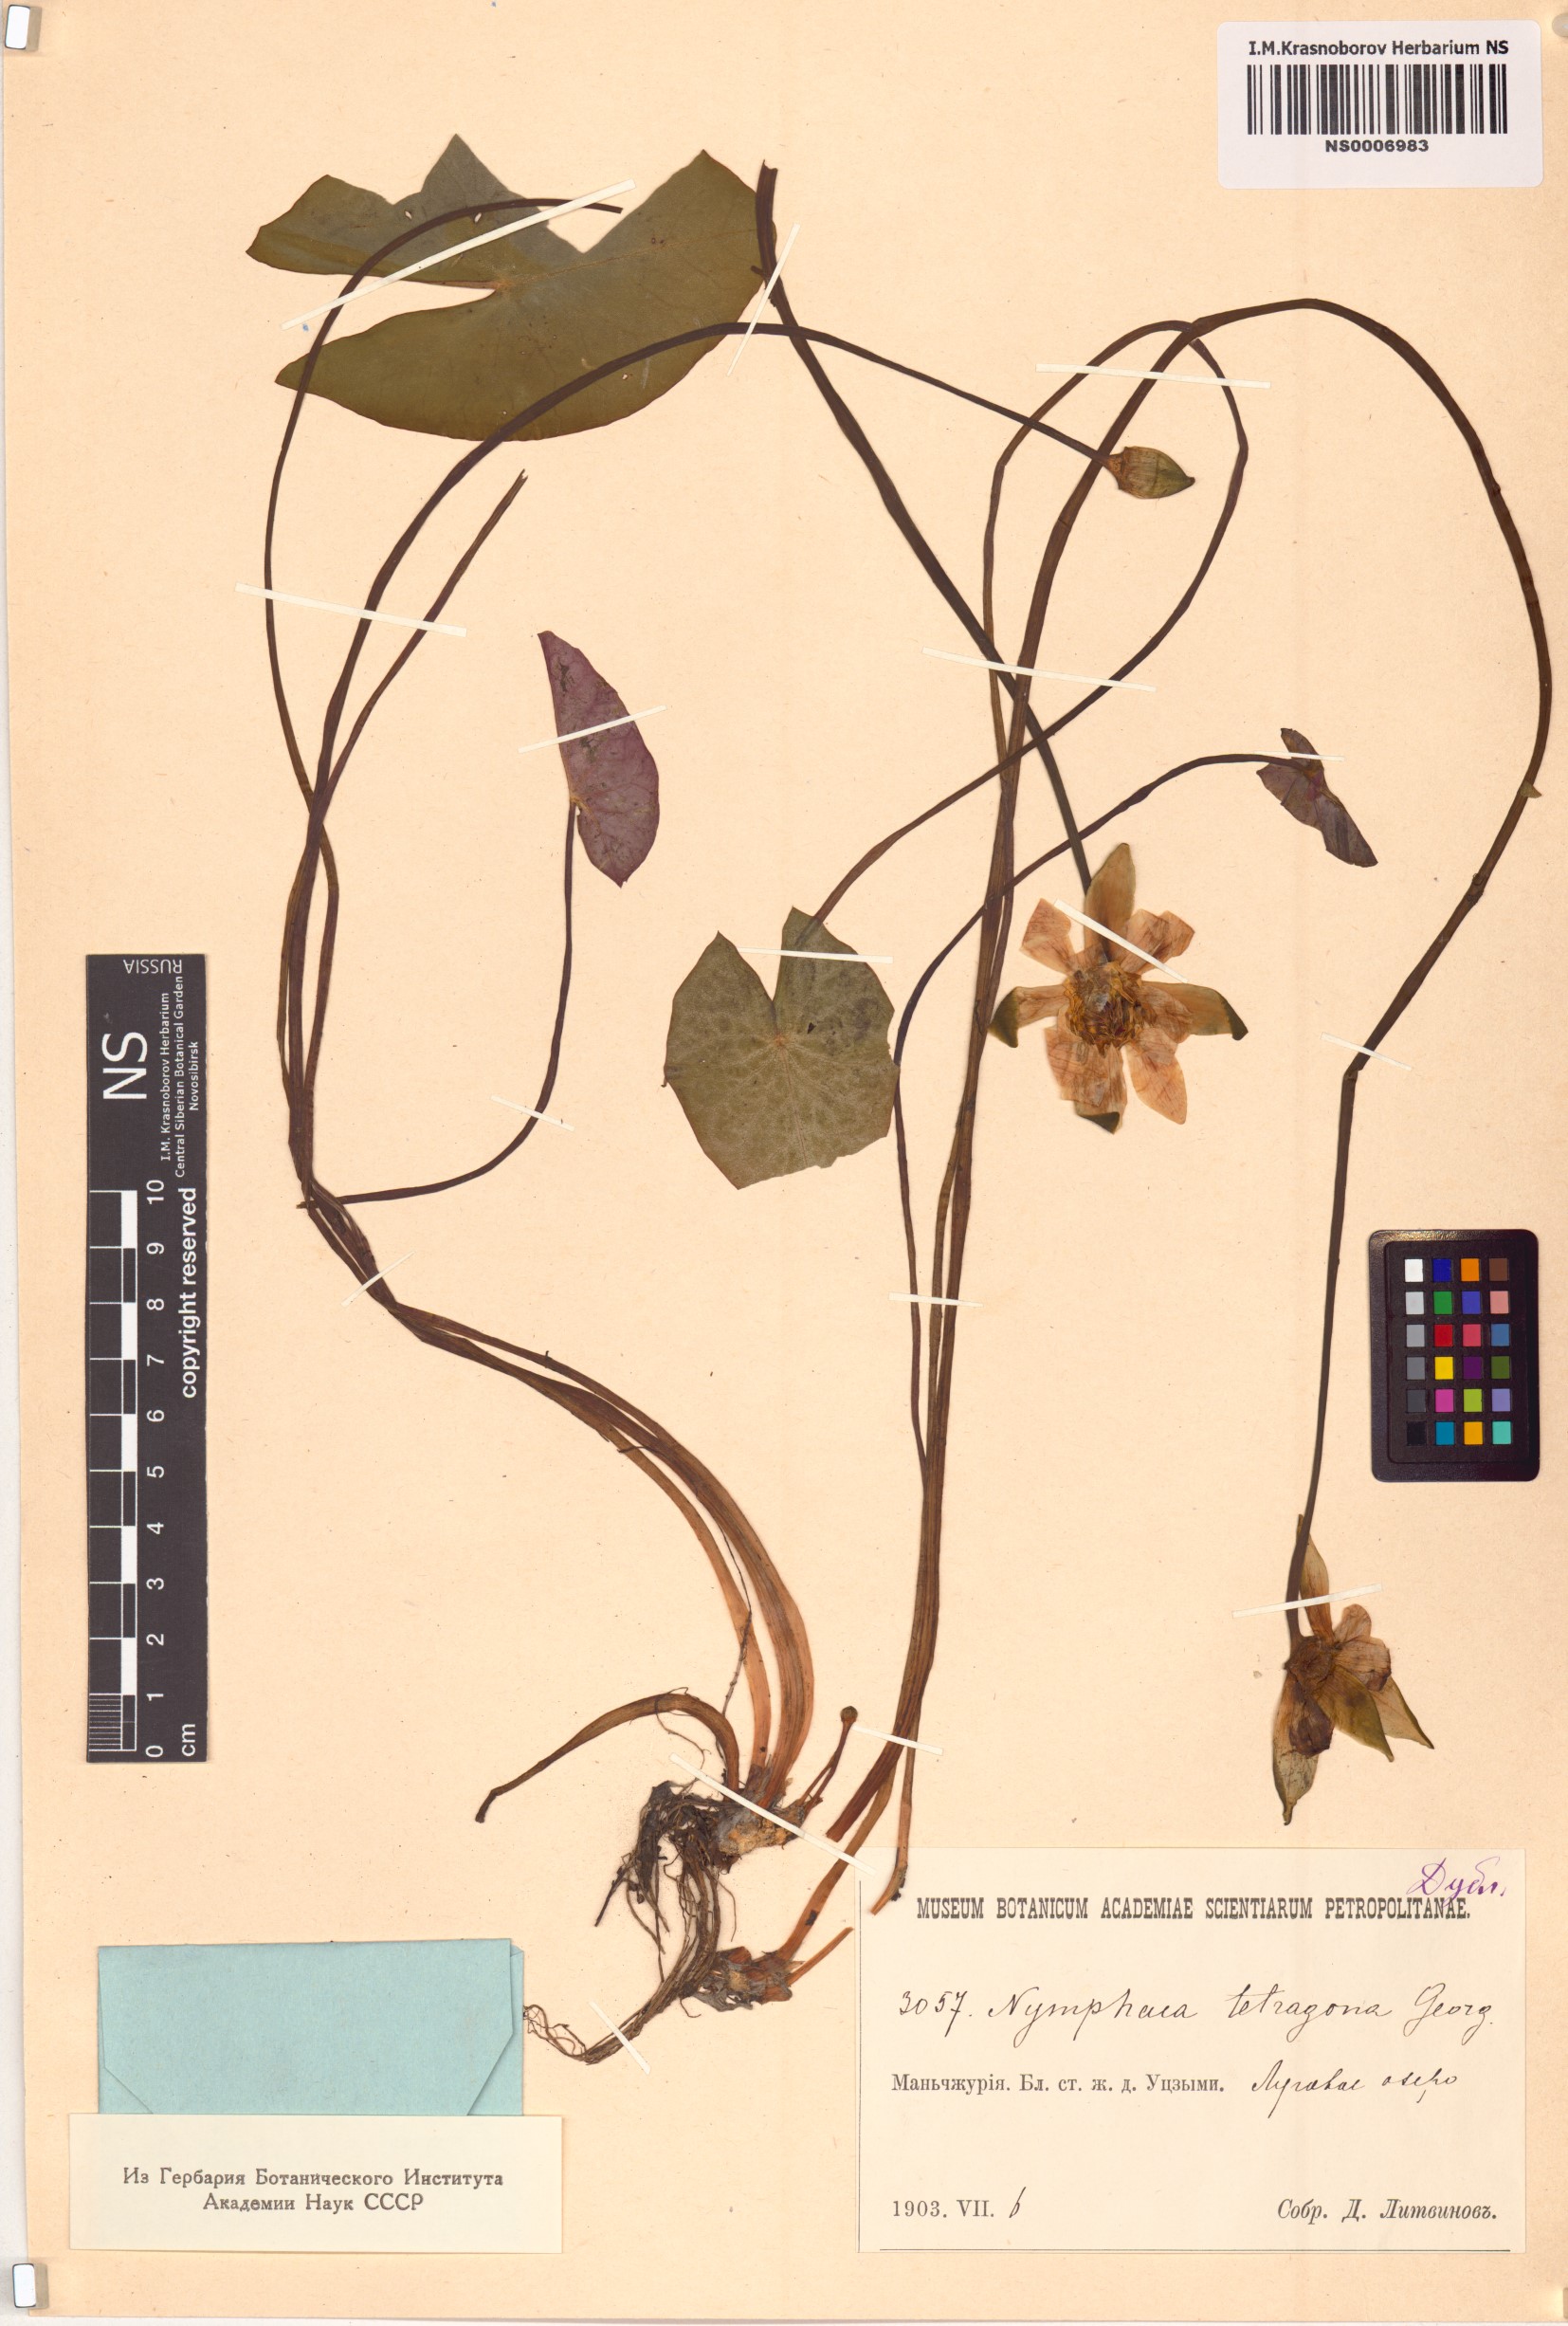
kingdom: Plantae
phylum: Tracheophyta
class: Magnoliopsida
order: Nymphaeales
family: Nymphaeaceae
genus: Nymphaea
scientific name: Nymphaea tetragona
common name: Pygmy water-lily
